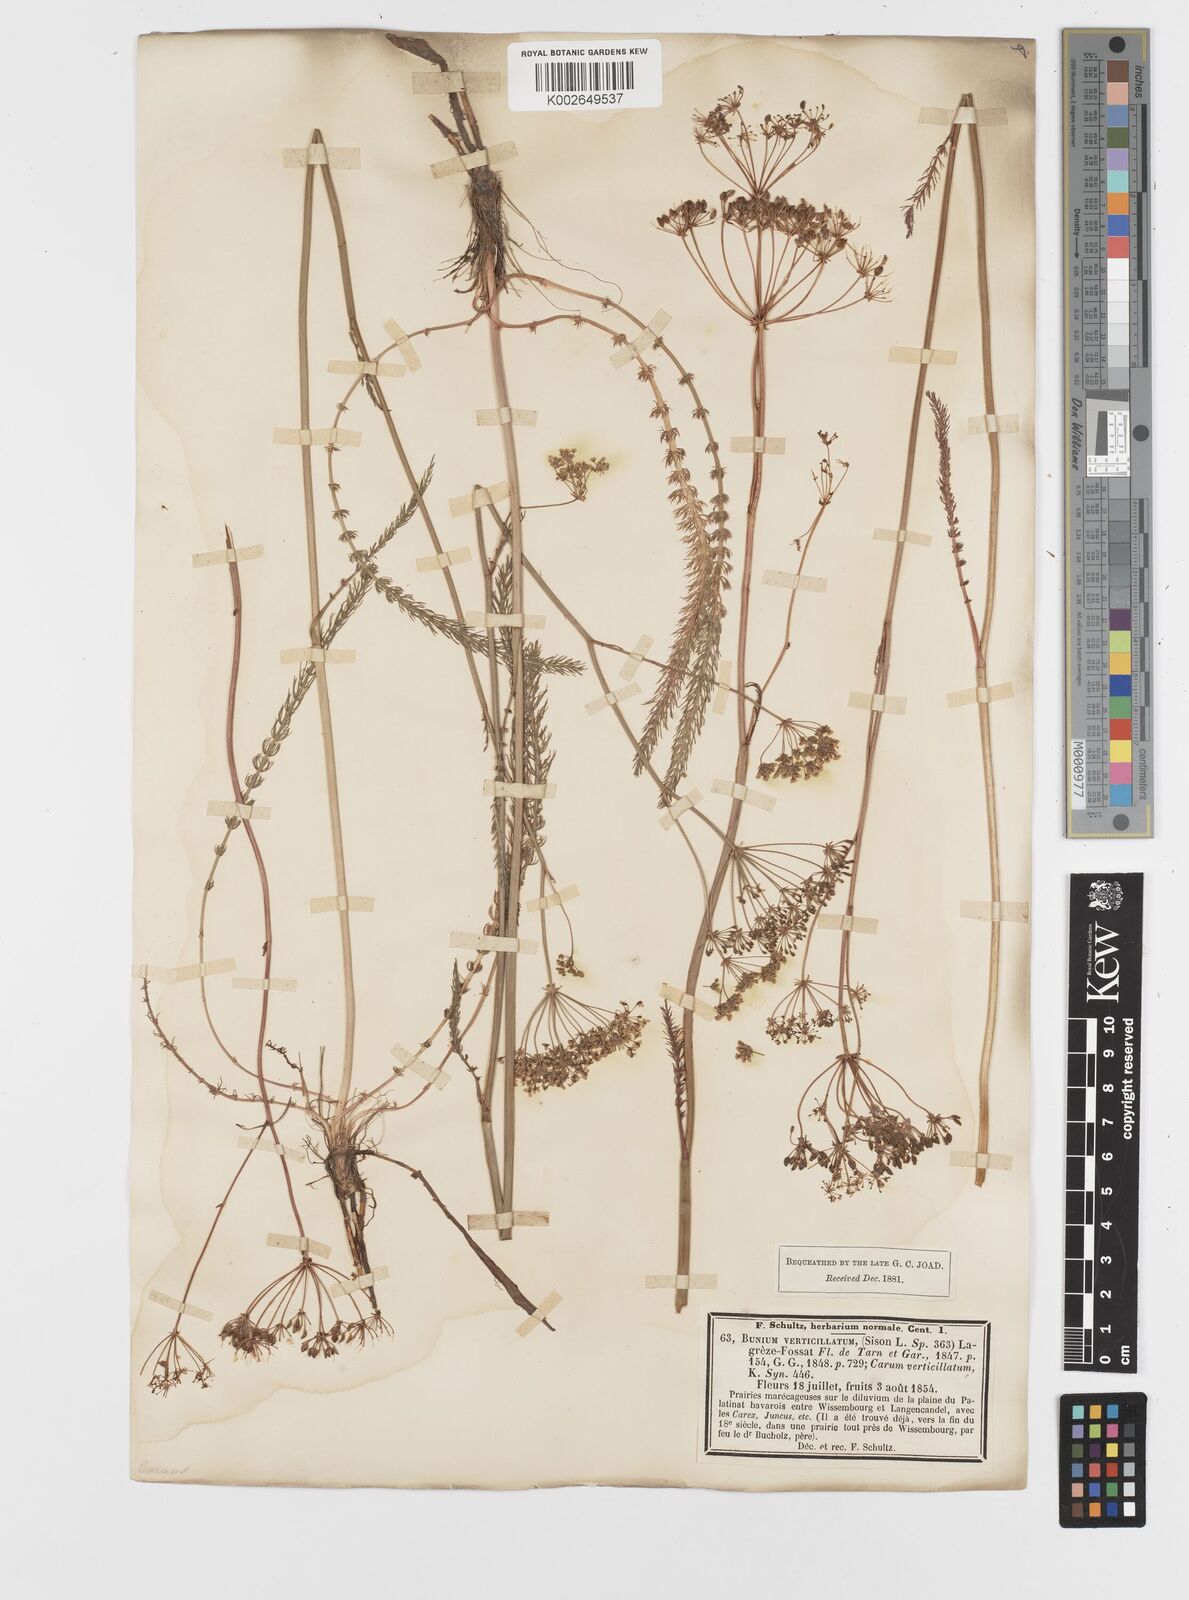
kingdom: Plantae
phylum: Tracheophyta
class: Magnoliopsida
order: Apiales
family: Apiaceae
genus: Trocdaris
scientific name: Trocdaris verticillatum
